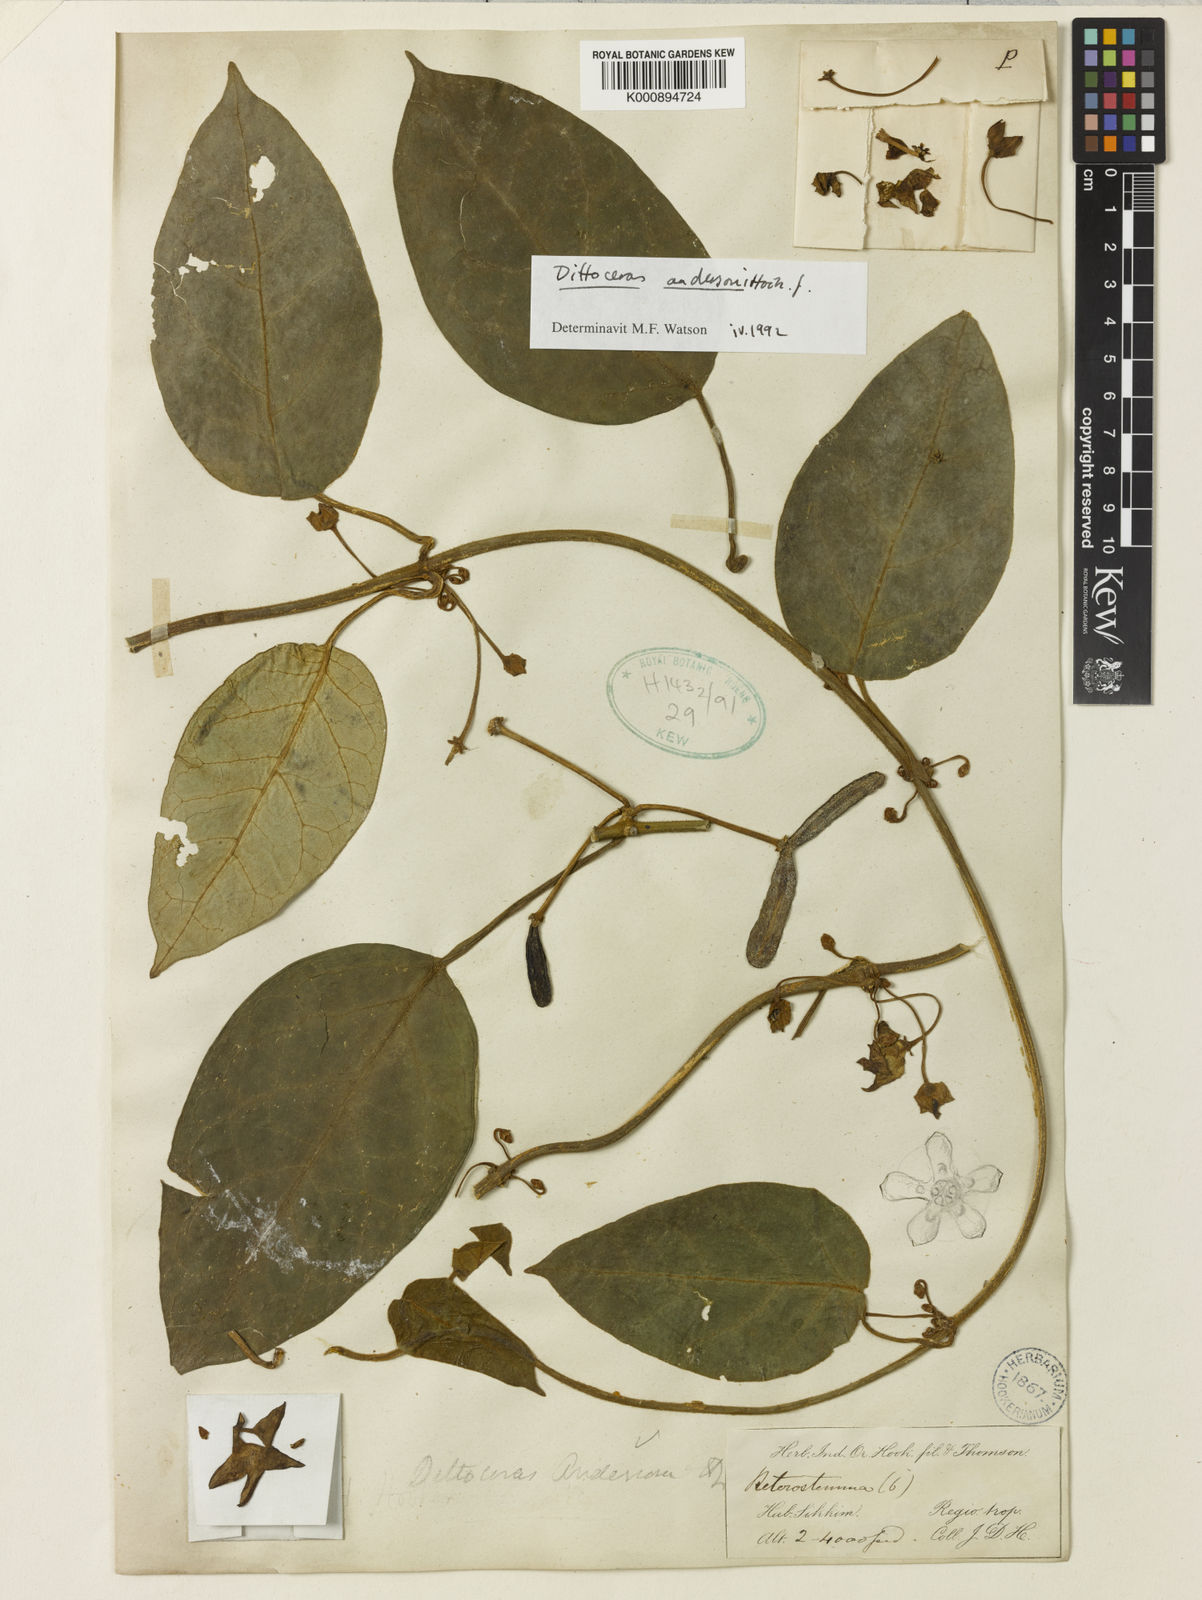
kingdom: Plantae
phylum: Tracheophyta
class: Magnoliopsida
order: Gentianales
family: Apocynaceae
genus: Heterostemma
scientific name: Heterostemma andersonii
